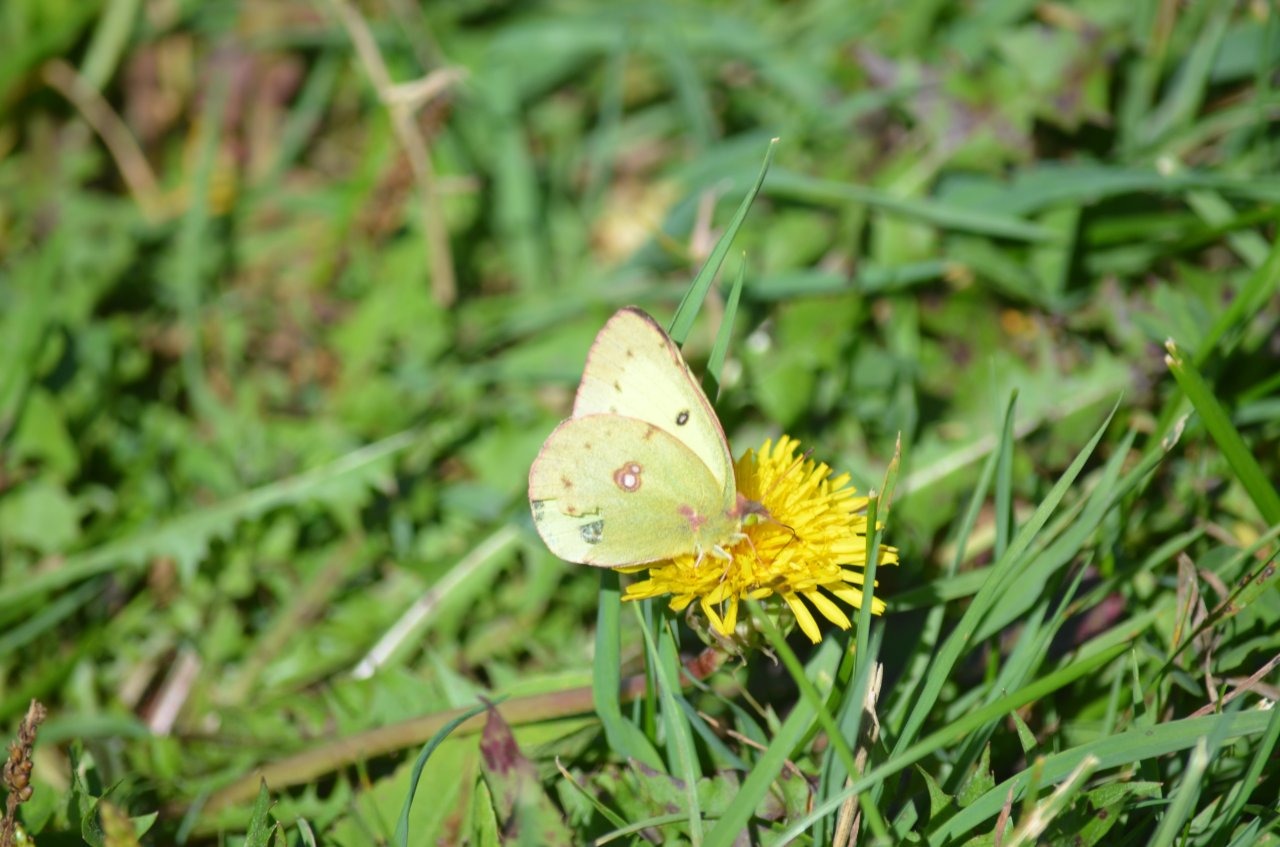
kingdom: Animalia
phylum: Arthropoda
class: Insecta
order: Lepidoptera
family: Pieridae
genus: Colias
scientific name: Colias philodice
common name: Clouded Sulphur
